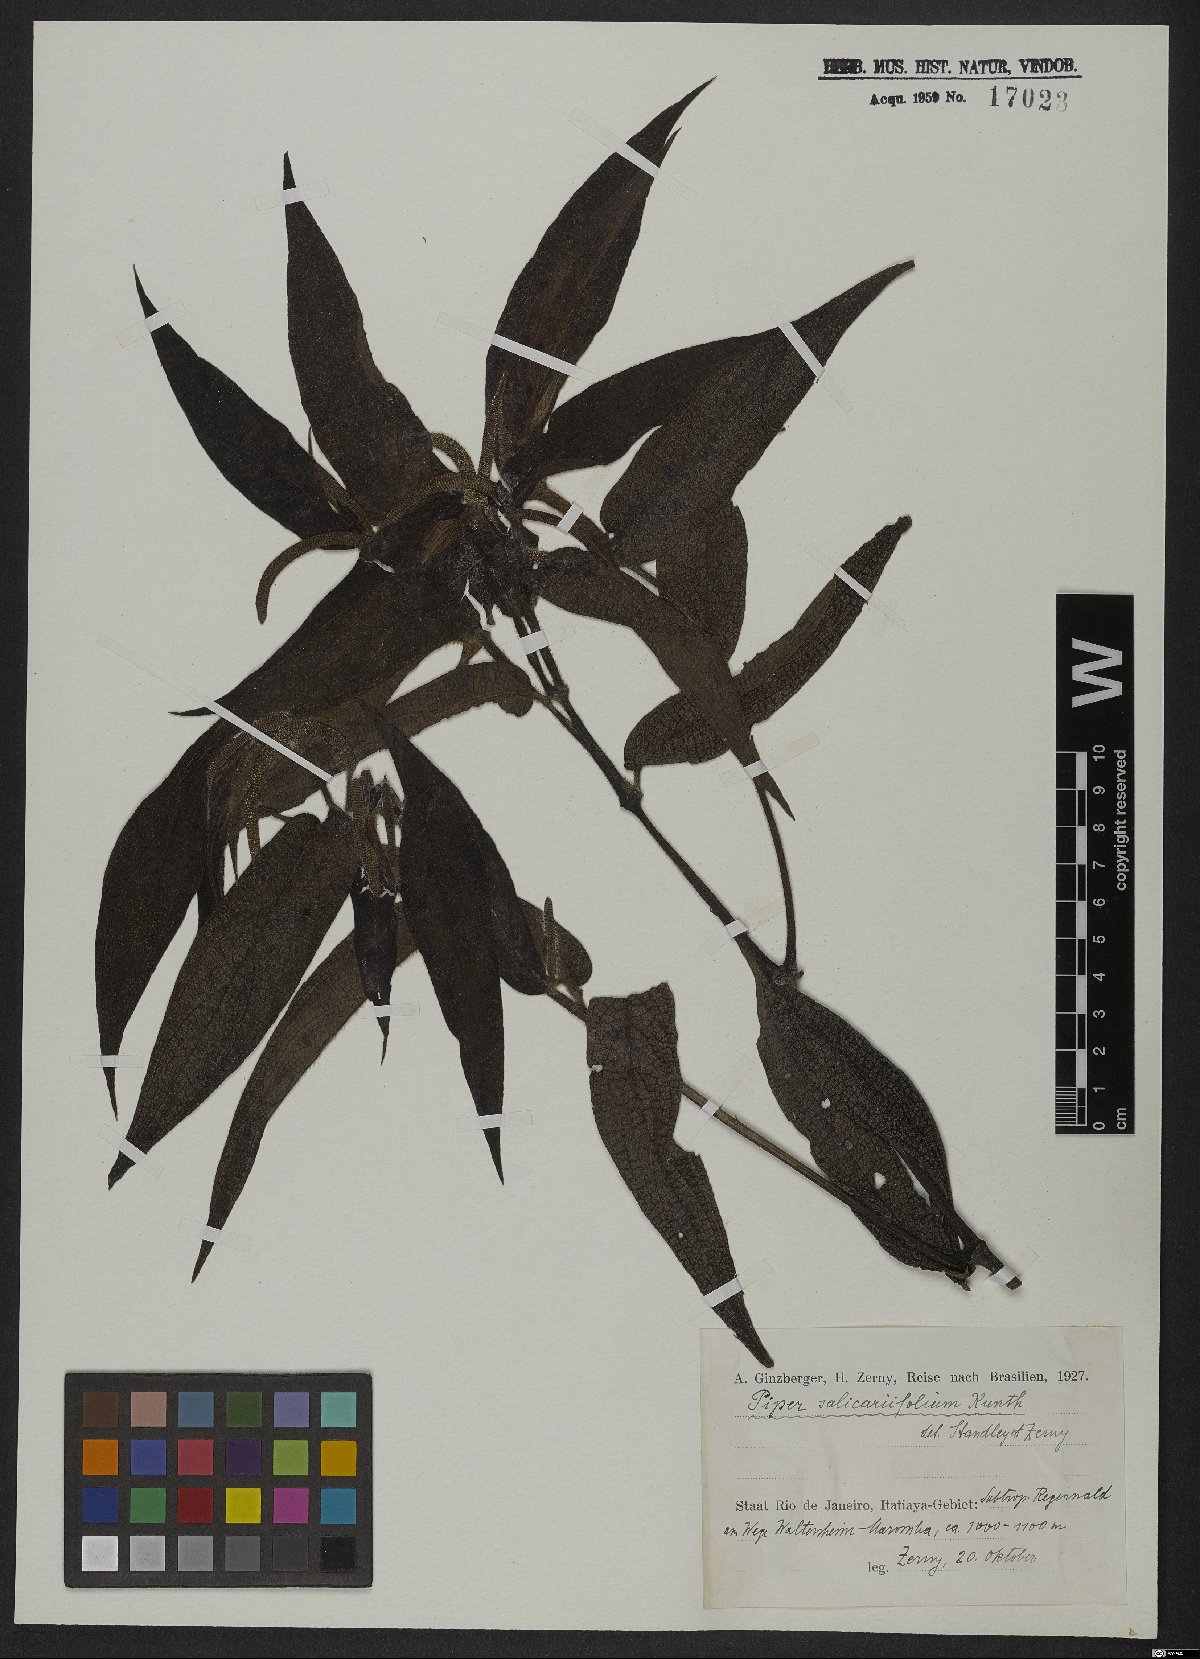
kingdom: Plantae
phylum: Tracheophyta
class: Magnoliopsida
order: Piperales
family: Piperaceae
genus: Piper
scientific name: Piper salicariifolium
